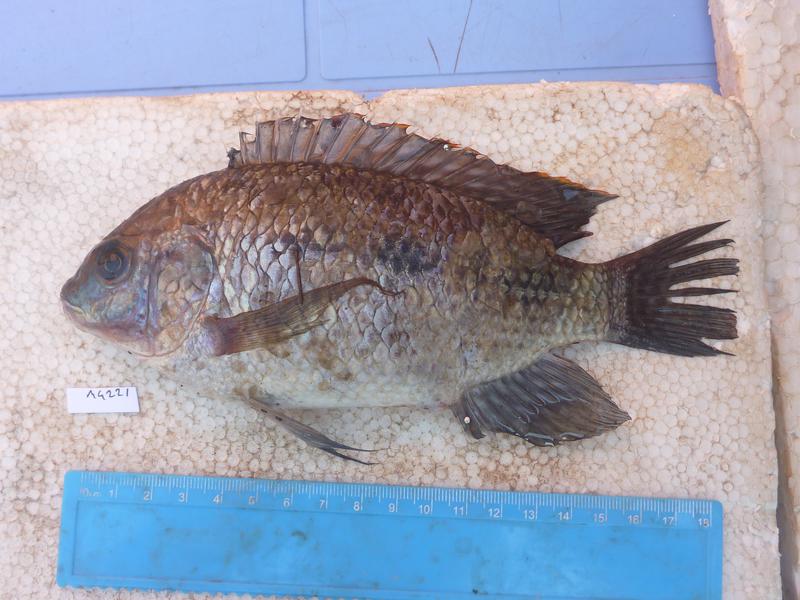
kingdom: Animalia
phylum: Chordata
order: Perciformes
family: Cichlidae
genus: Oreochromis
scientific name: Oreochromis upembae
